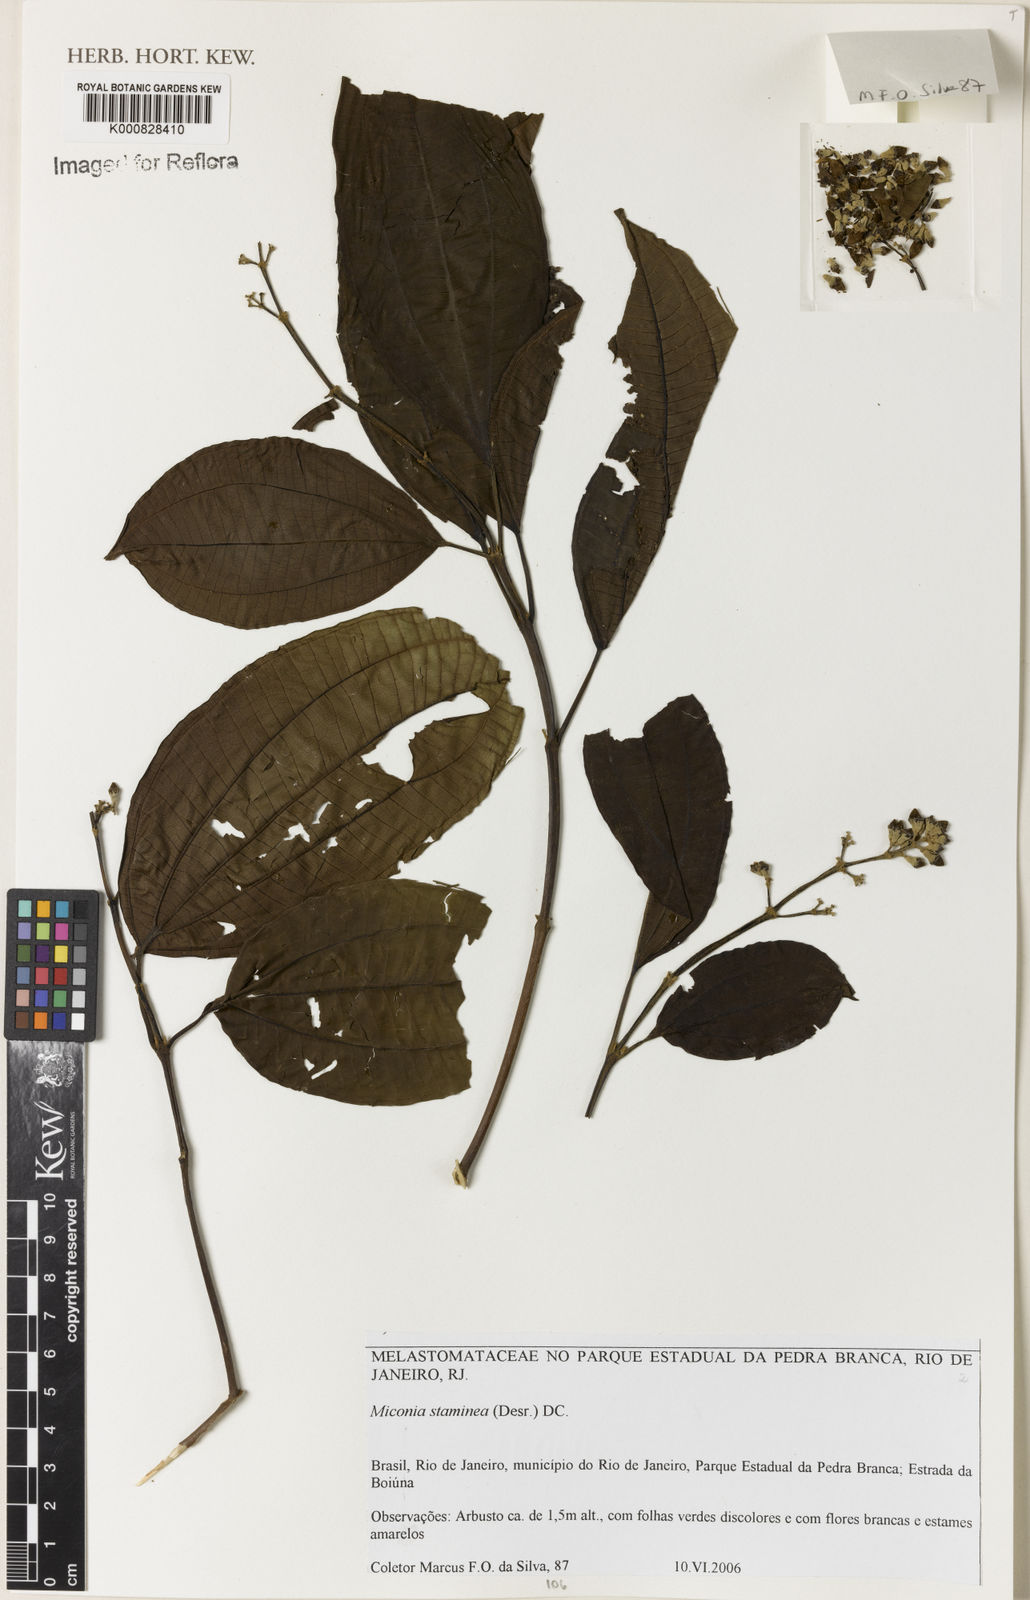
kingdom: Plantae
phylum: Tracheophyta
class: Magnoliopsida
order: Myrtales
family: Melastomataceae
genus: Miconia
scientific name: Miconia staminea
